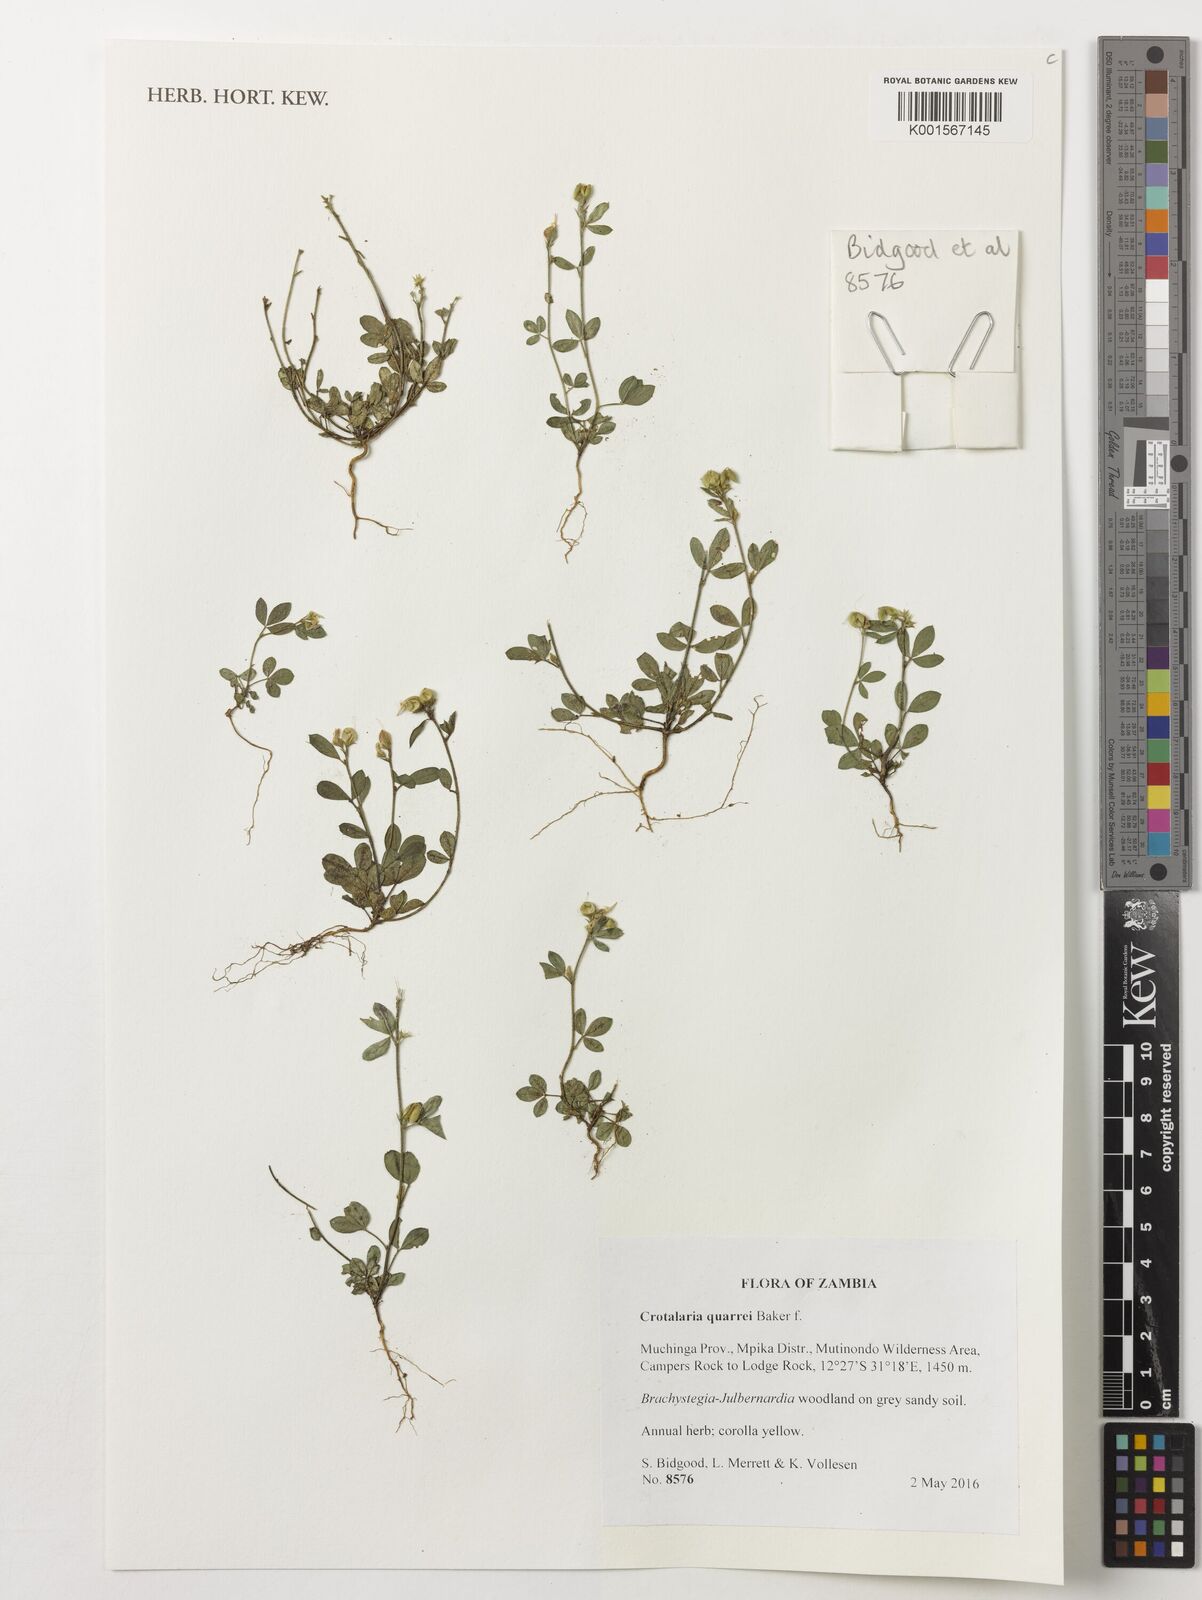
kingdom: Plantae
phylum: Tracheophyta
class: Magnoliopsida
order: Fabales
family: Fabaceae
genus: Crotalaria
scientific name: Crotalaria quarrei
